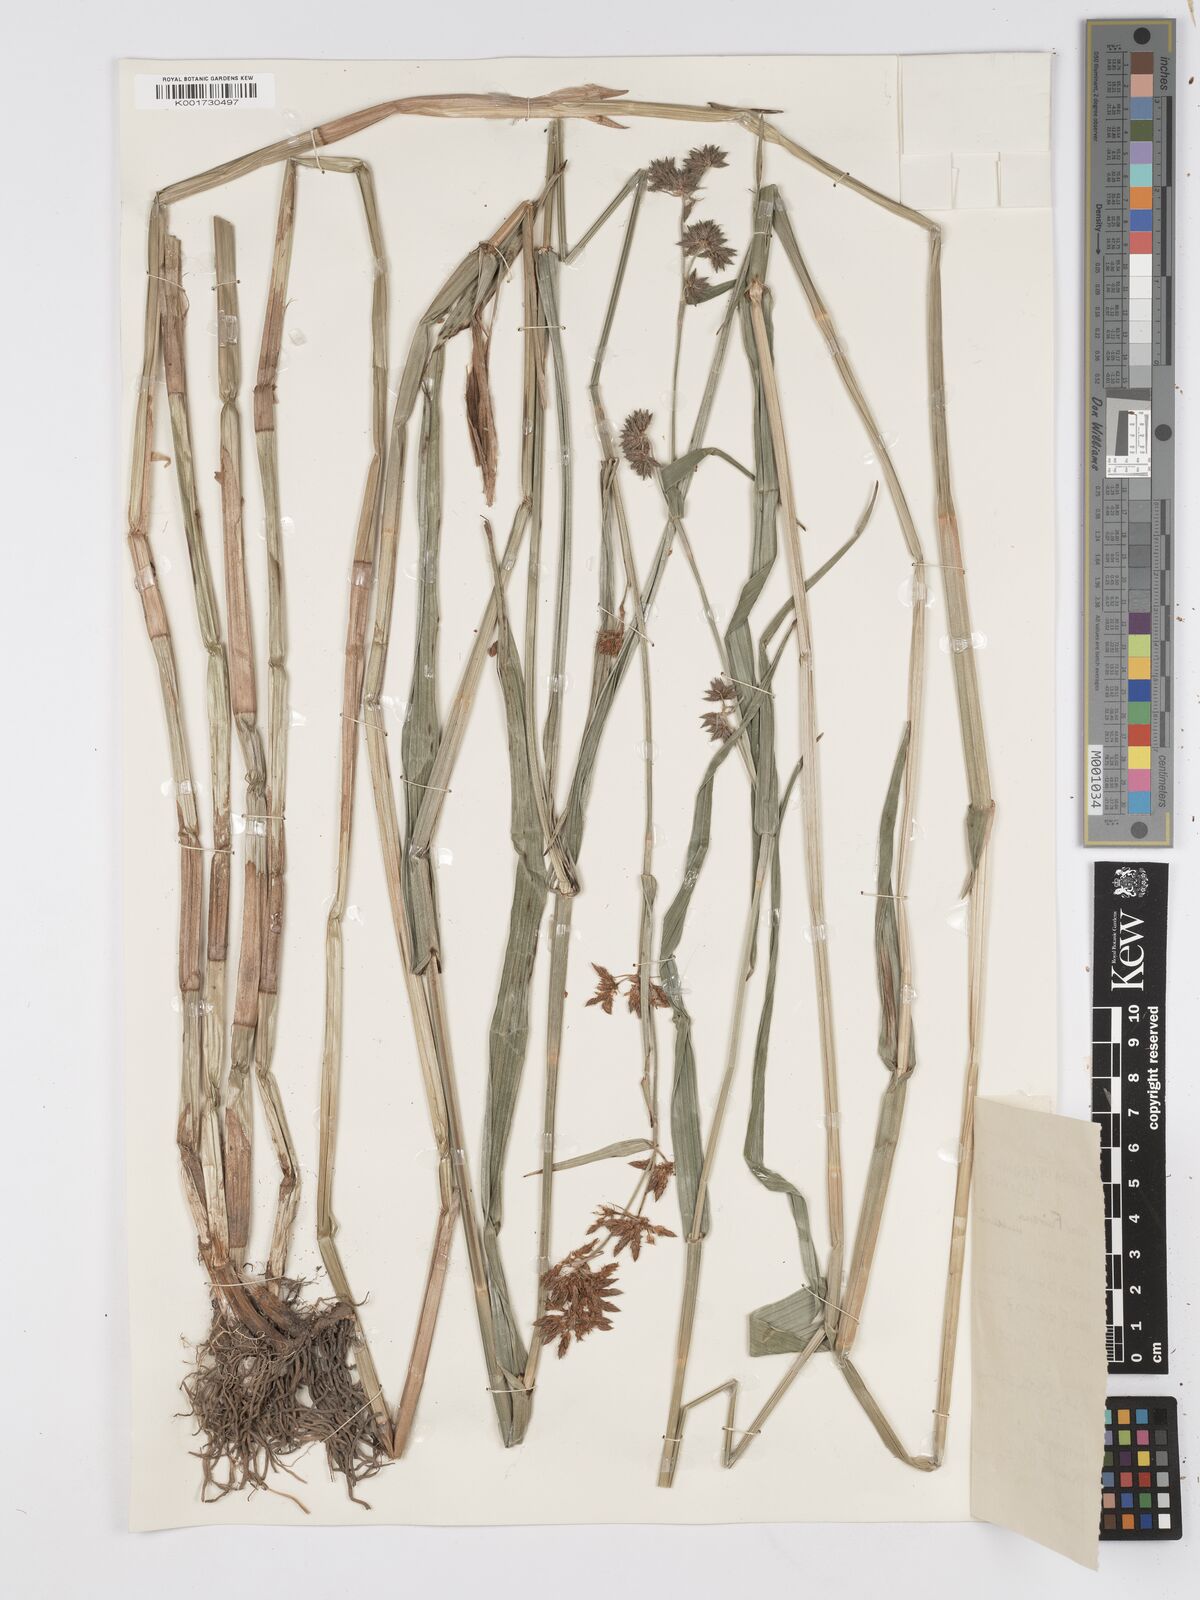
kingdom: Plantae
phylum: Tracheophyta
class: Liliopsida
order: Poales
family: Cyperaceae
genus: Fuirena
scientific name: Fuirena umbellata
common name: Yefen
